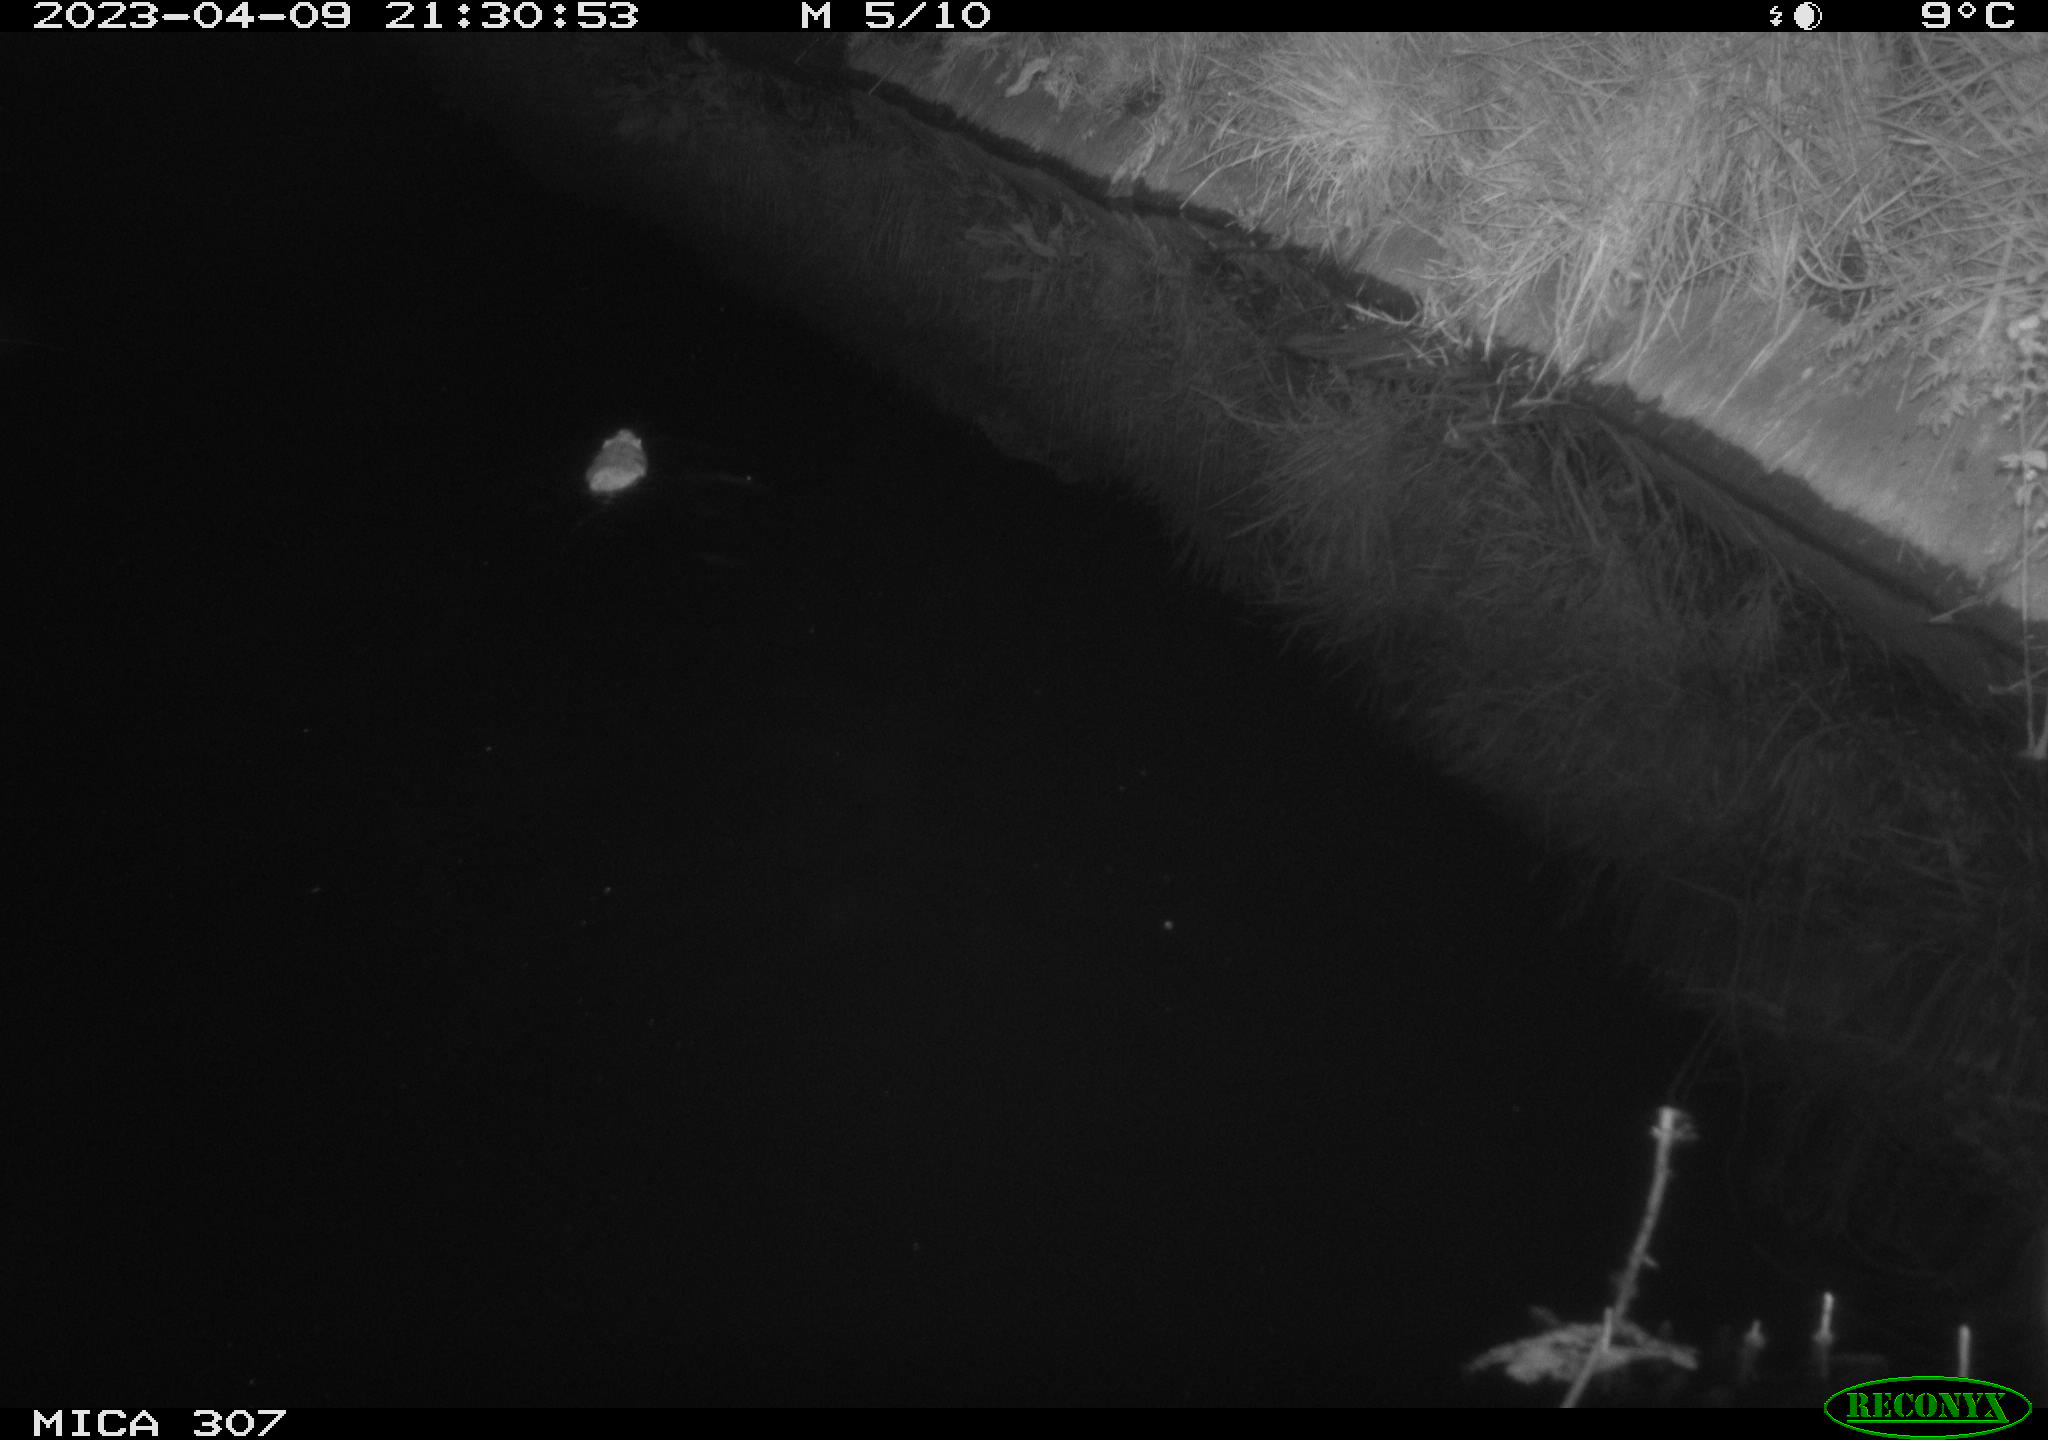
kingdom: Animalia
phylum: Chordata
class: Mammalia
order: Rodentia
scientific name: Rodentia
